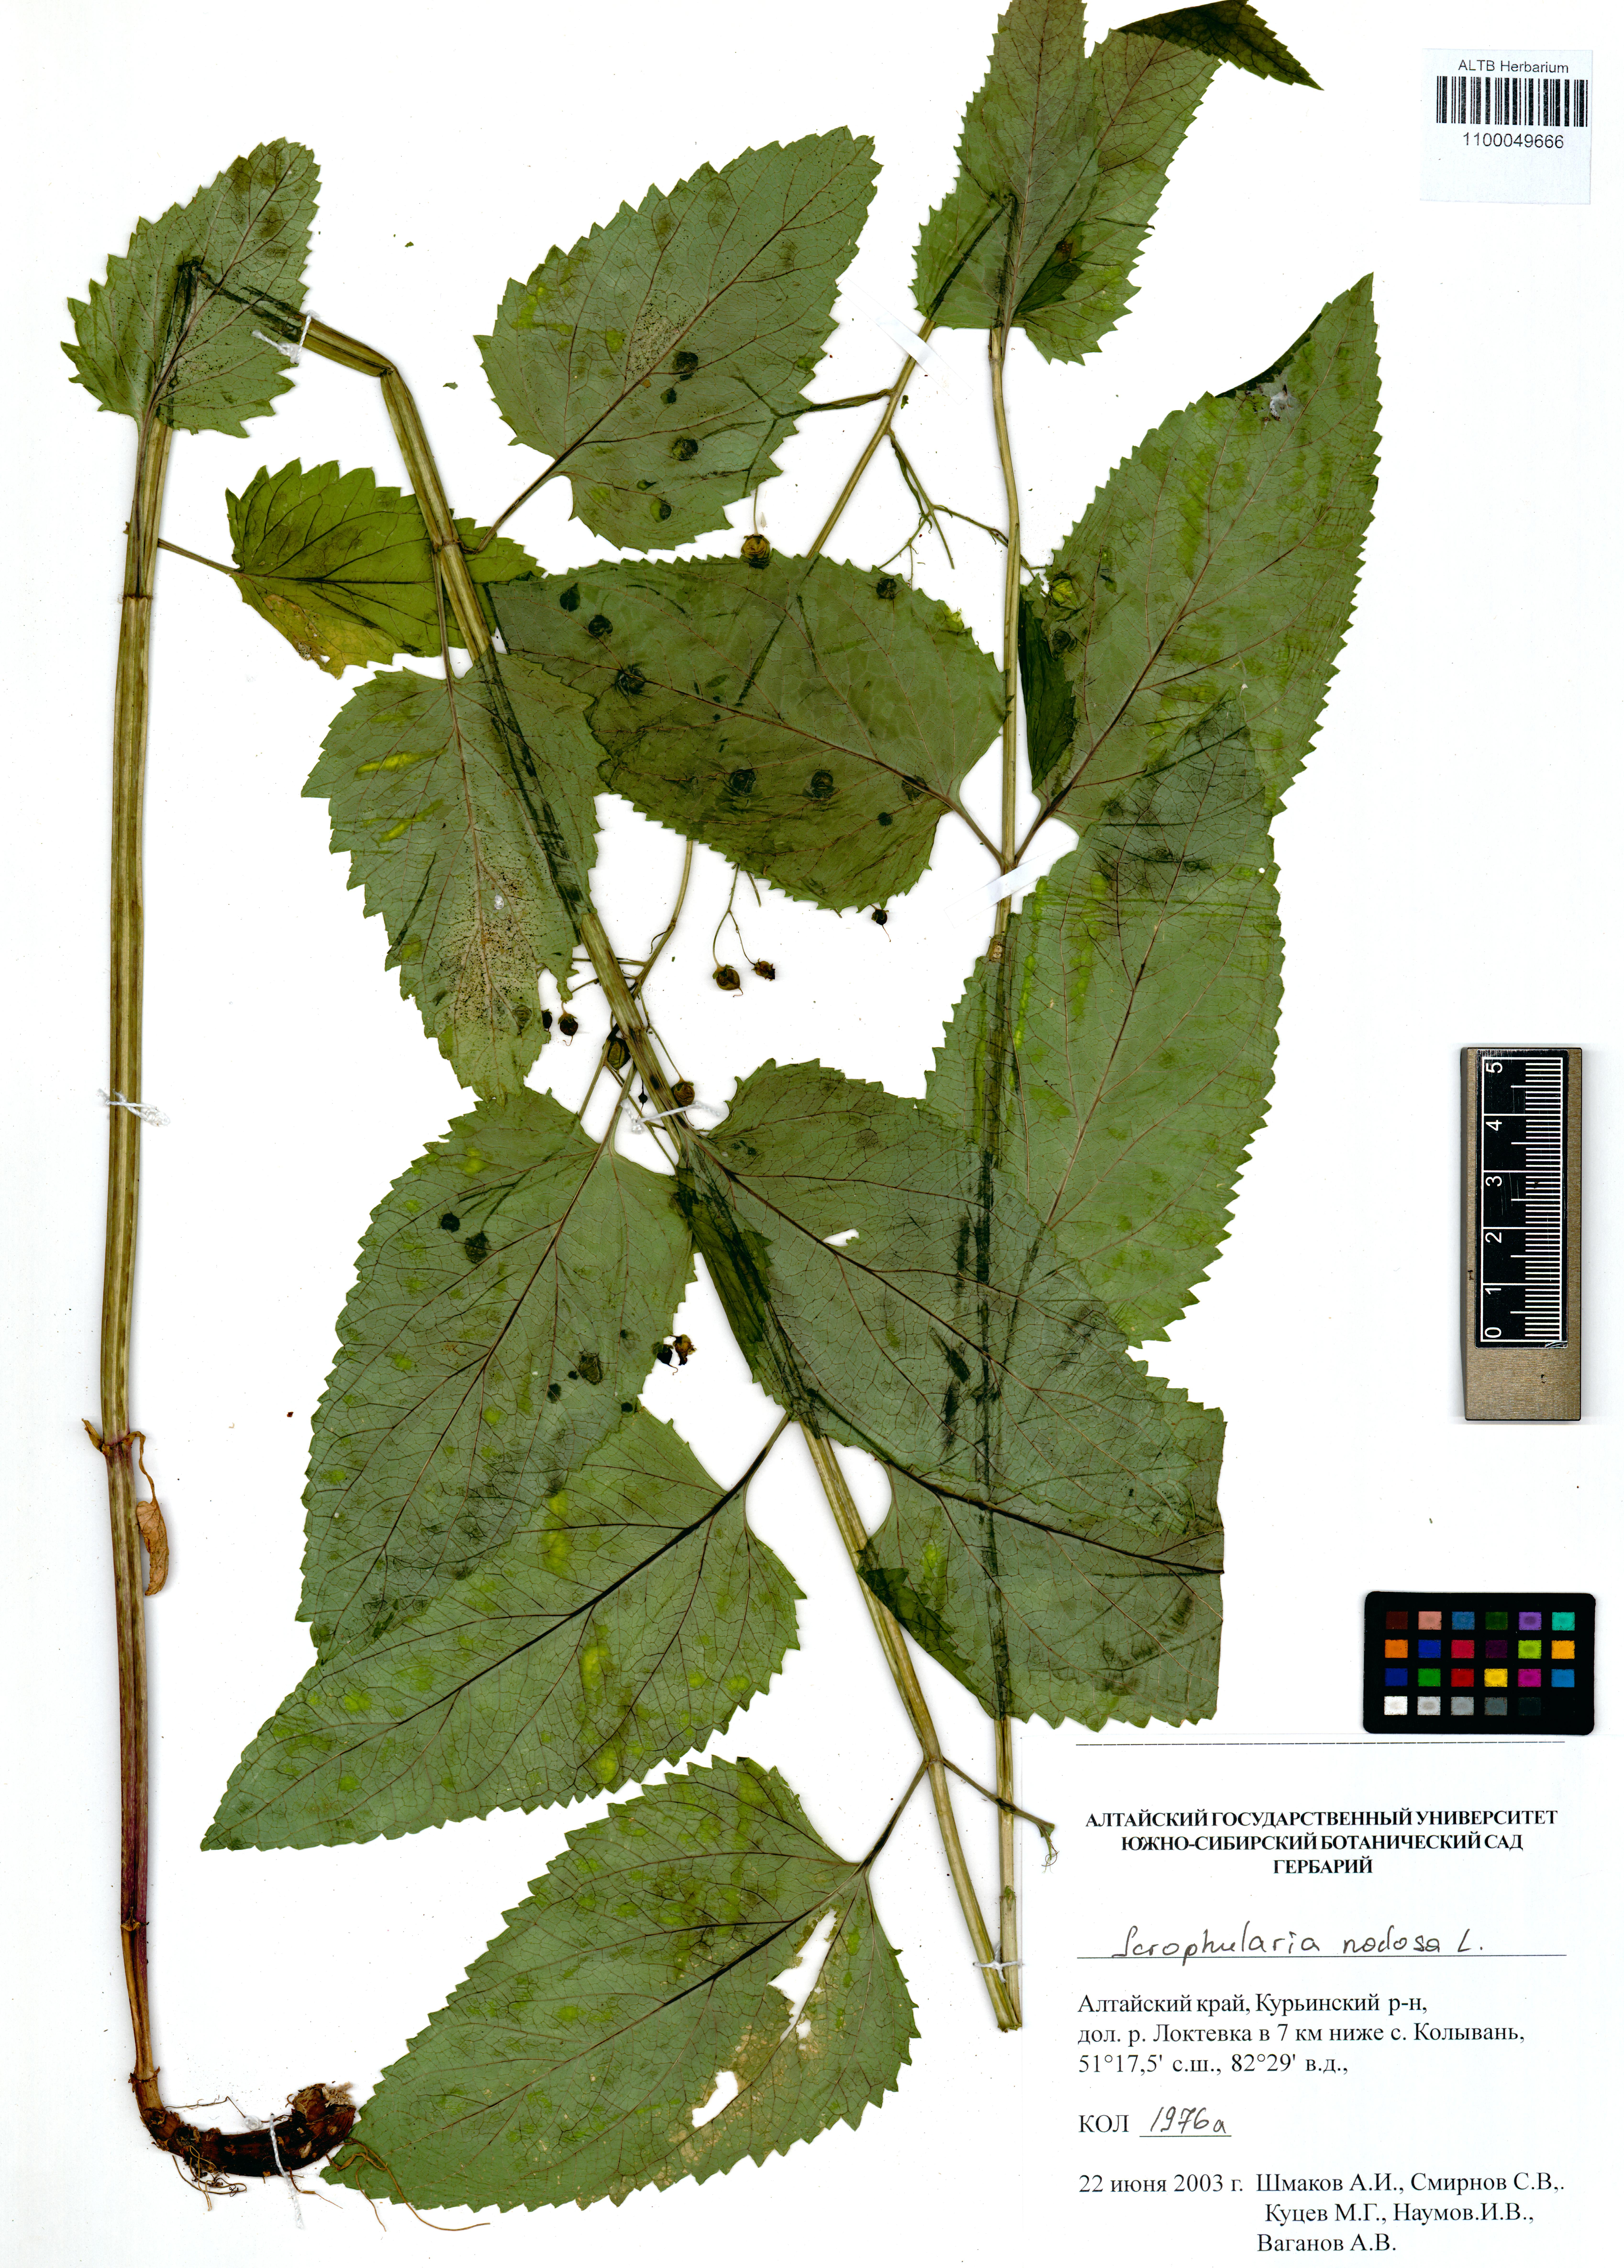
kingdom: Plantae
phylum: Tracheophyta
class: Magnoliopsida
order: Lamiales
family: Scrophulariaceae
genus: Scrophularia
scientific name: Scrophularia nodosa
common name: Common figwort
